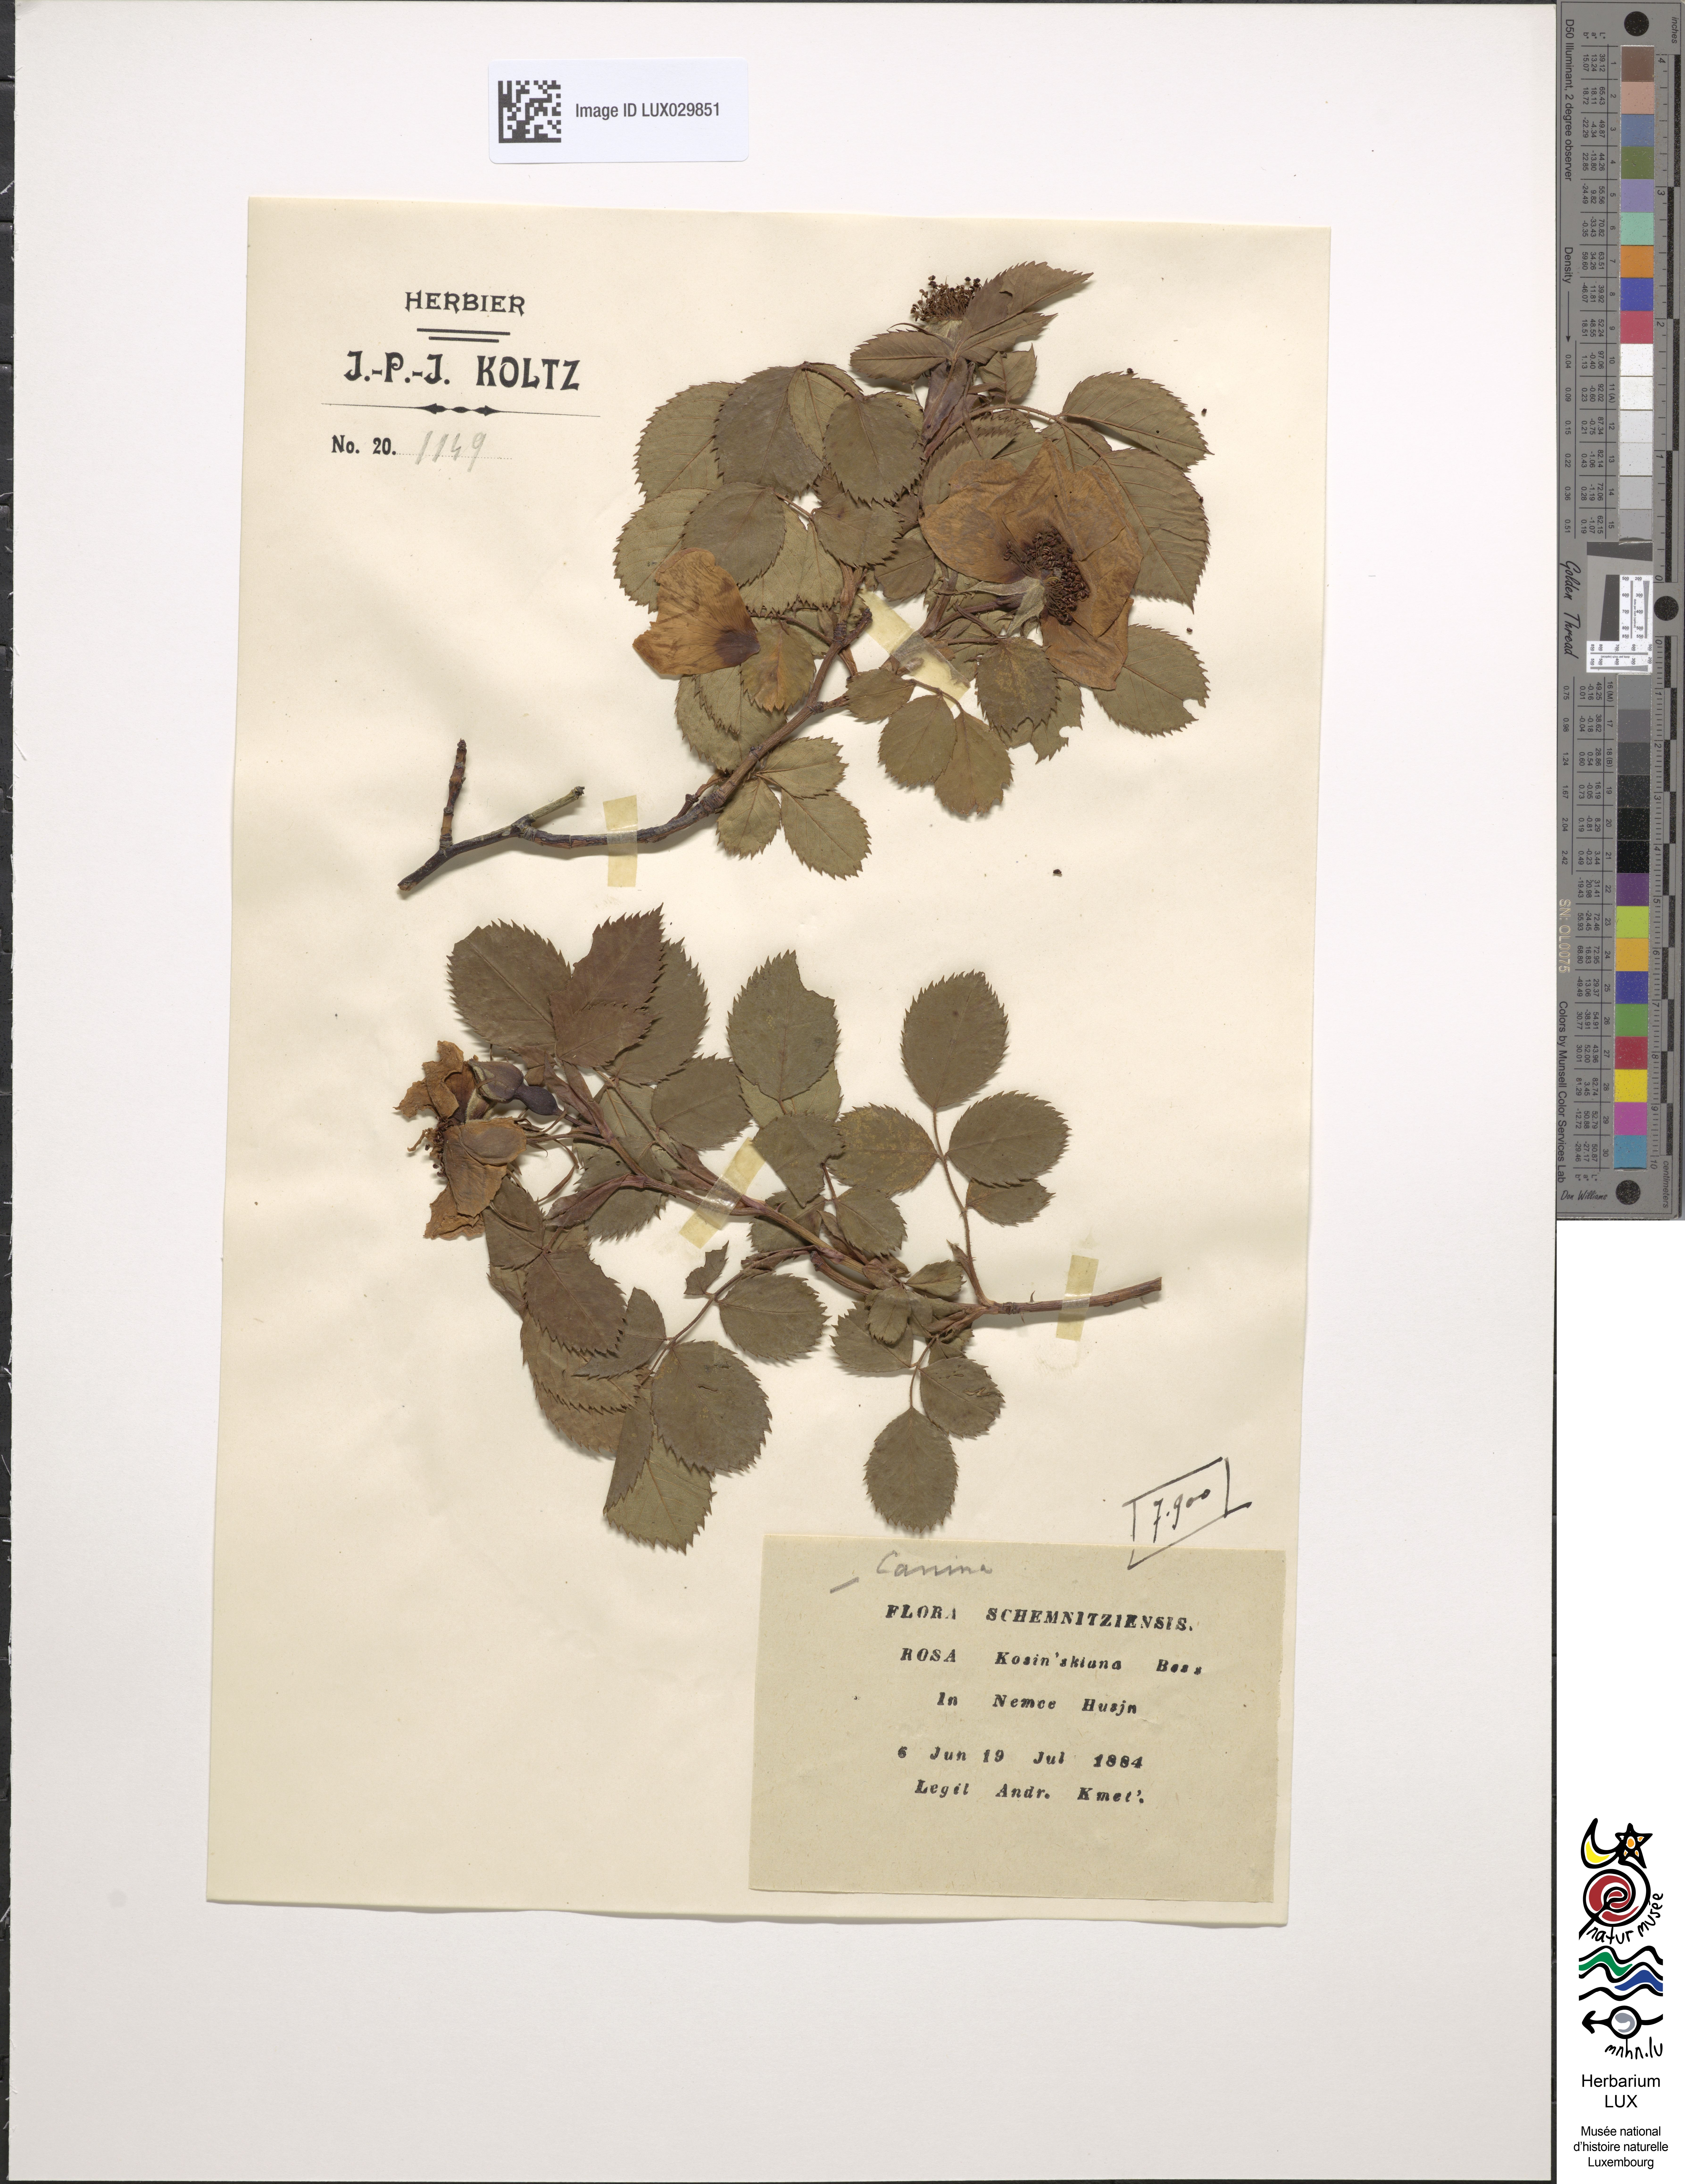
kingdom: Plantae
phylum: Tracheophyta
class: Magnoliopsida
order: Rosales
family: Rosaceae
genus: Rosa
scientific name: Rosa kosinsciana
